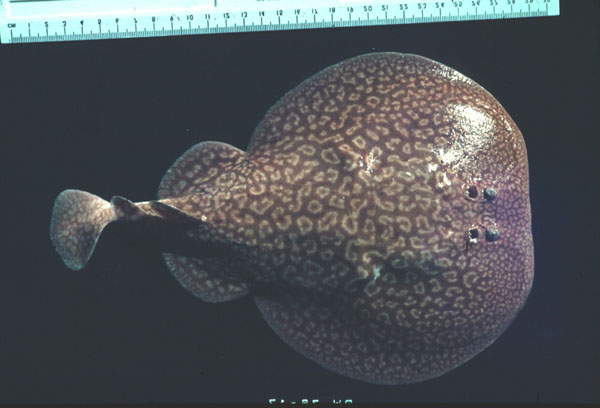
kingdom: Animalia
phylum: Chordata
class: Elasmobranchii
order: Torpediniformes
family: Torpedinidae
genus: Torpedo
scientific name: Torpedo sinuspersici
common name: Marbled electric ray
